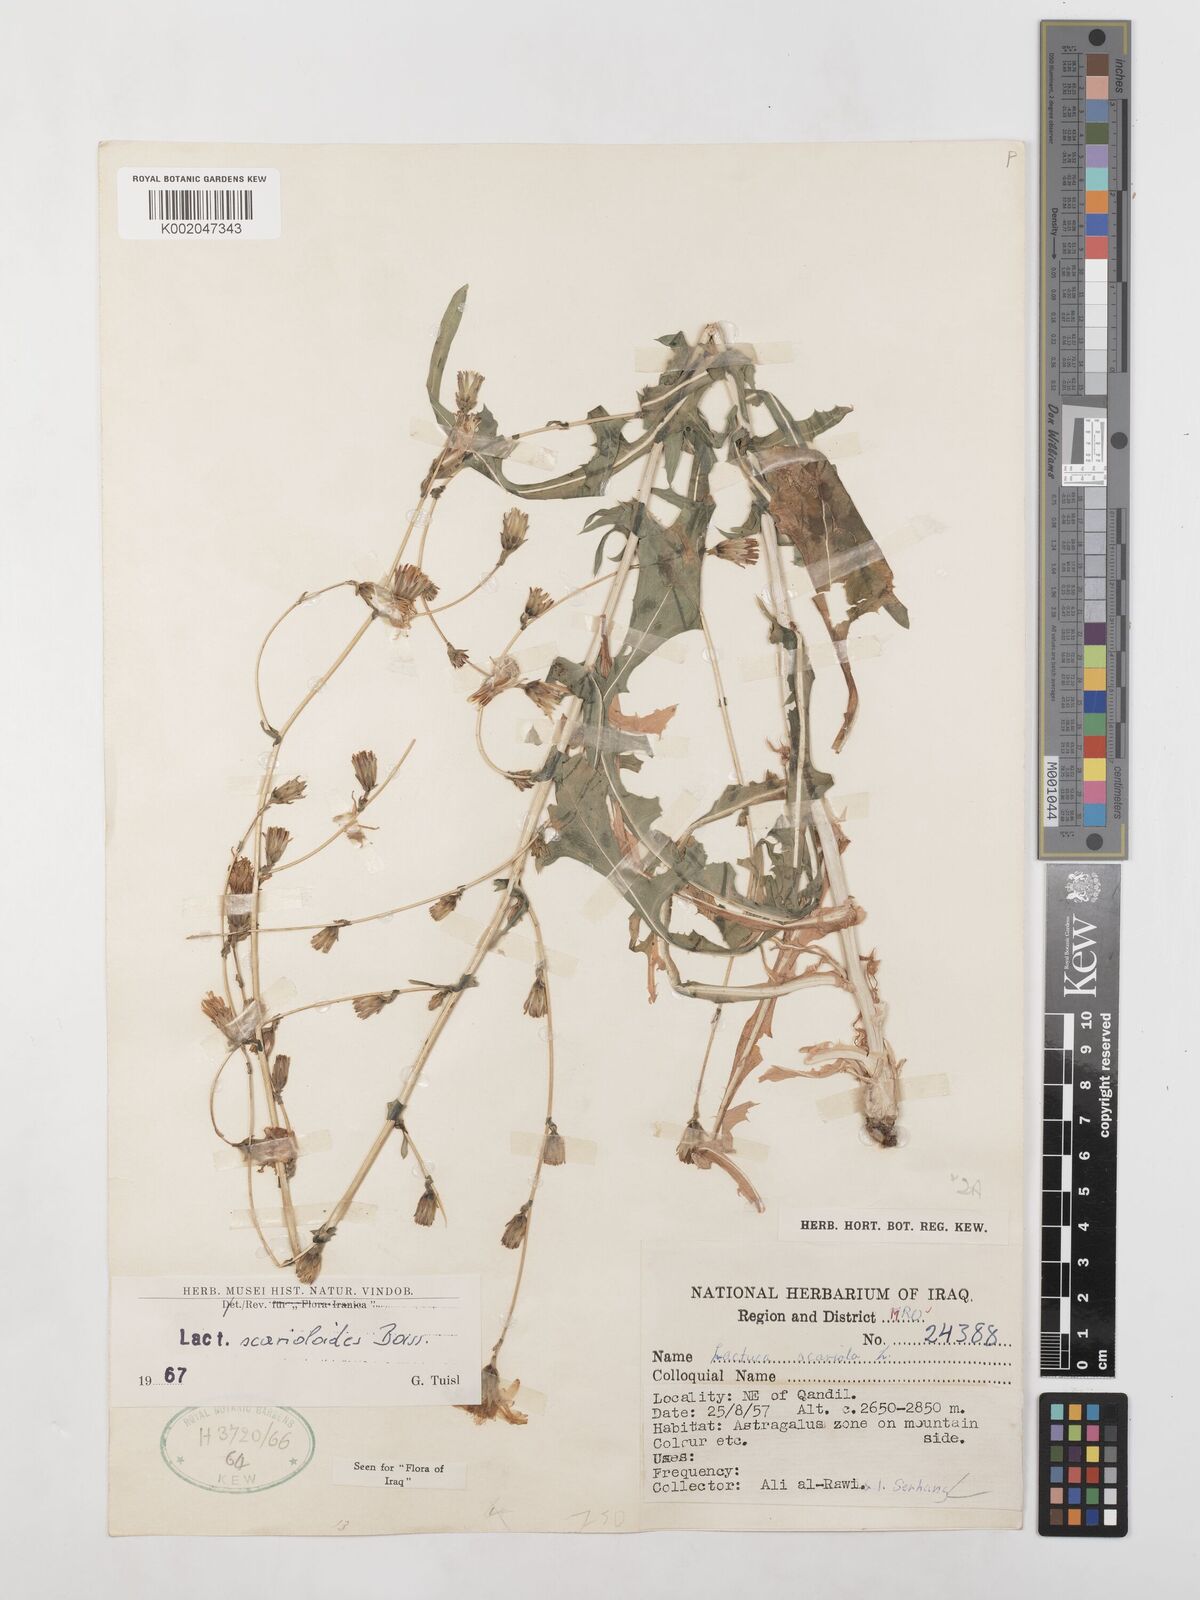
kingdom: Plantae
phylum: Tracheophyta
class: Magnoliopsida
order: Asterales
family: Asteraceae
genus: Lactuca
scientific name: Lactuca scarioloides
